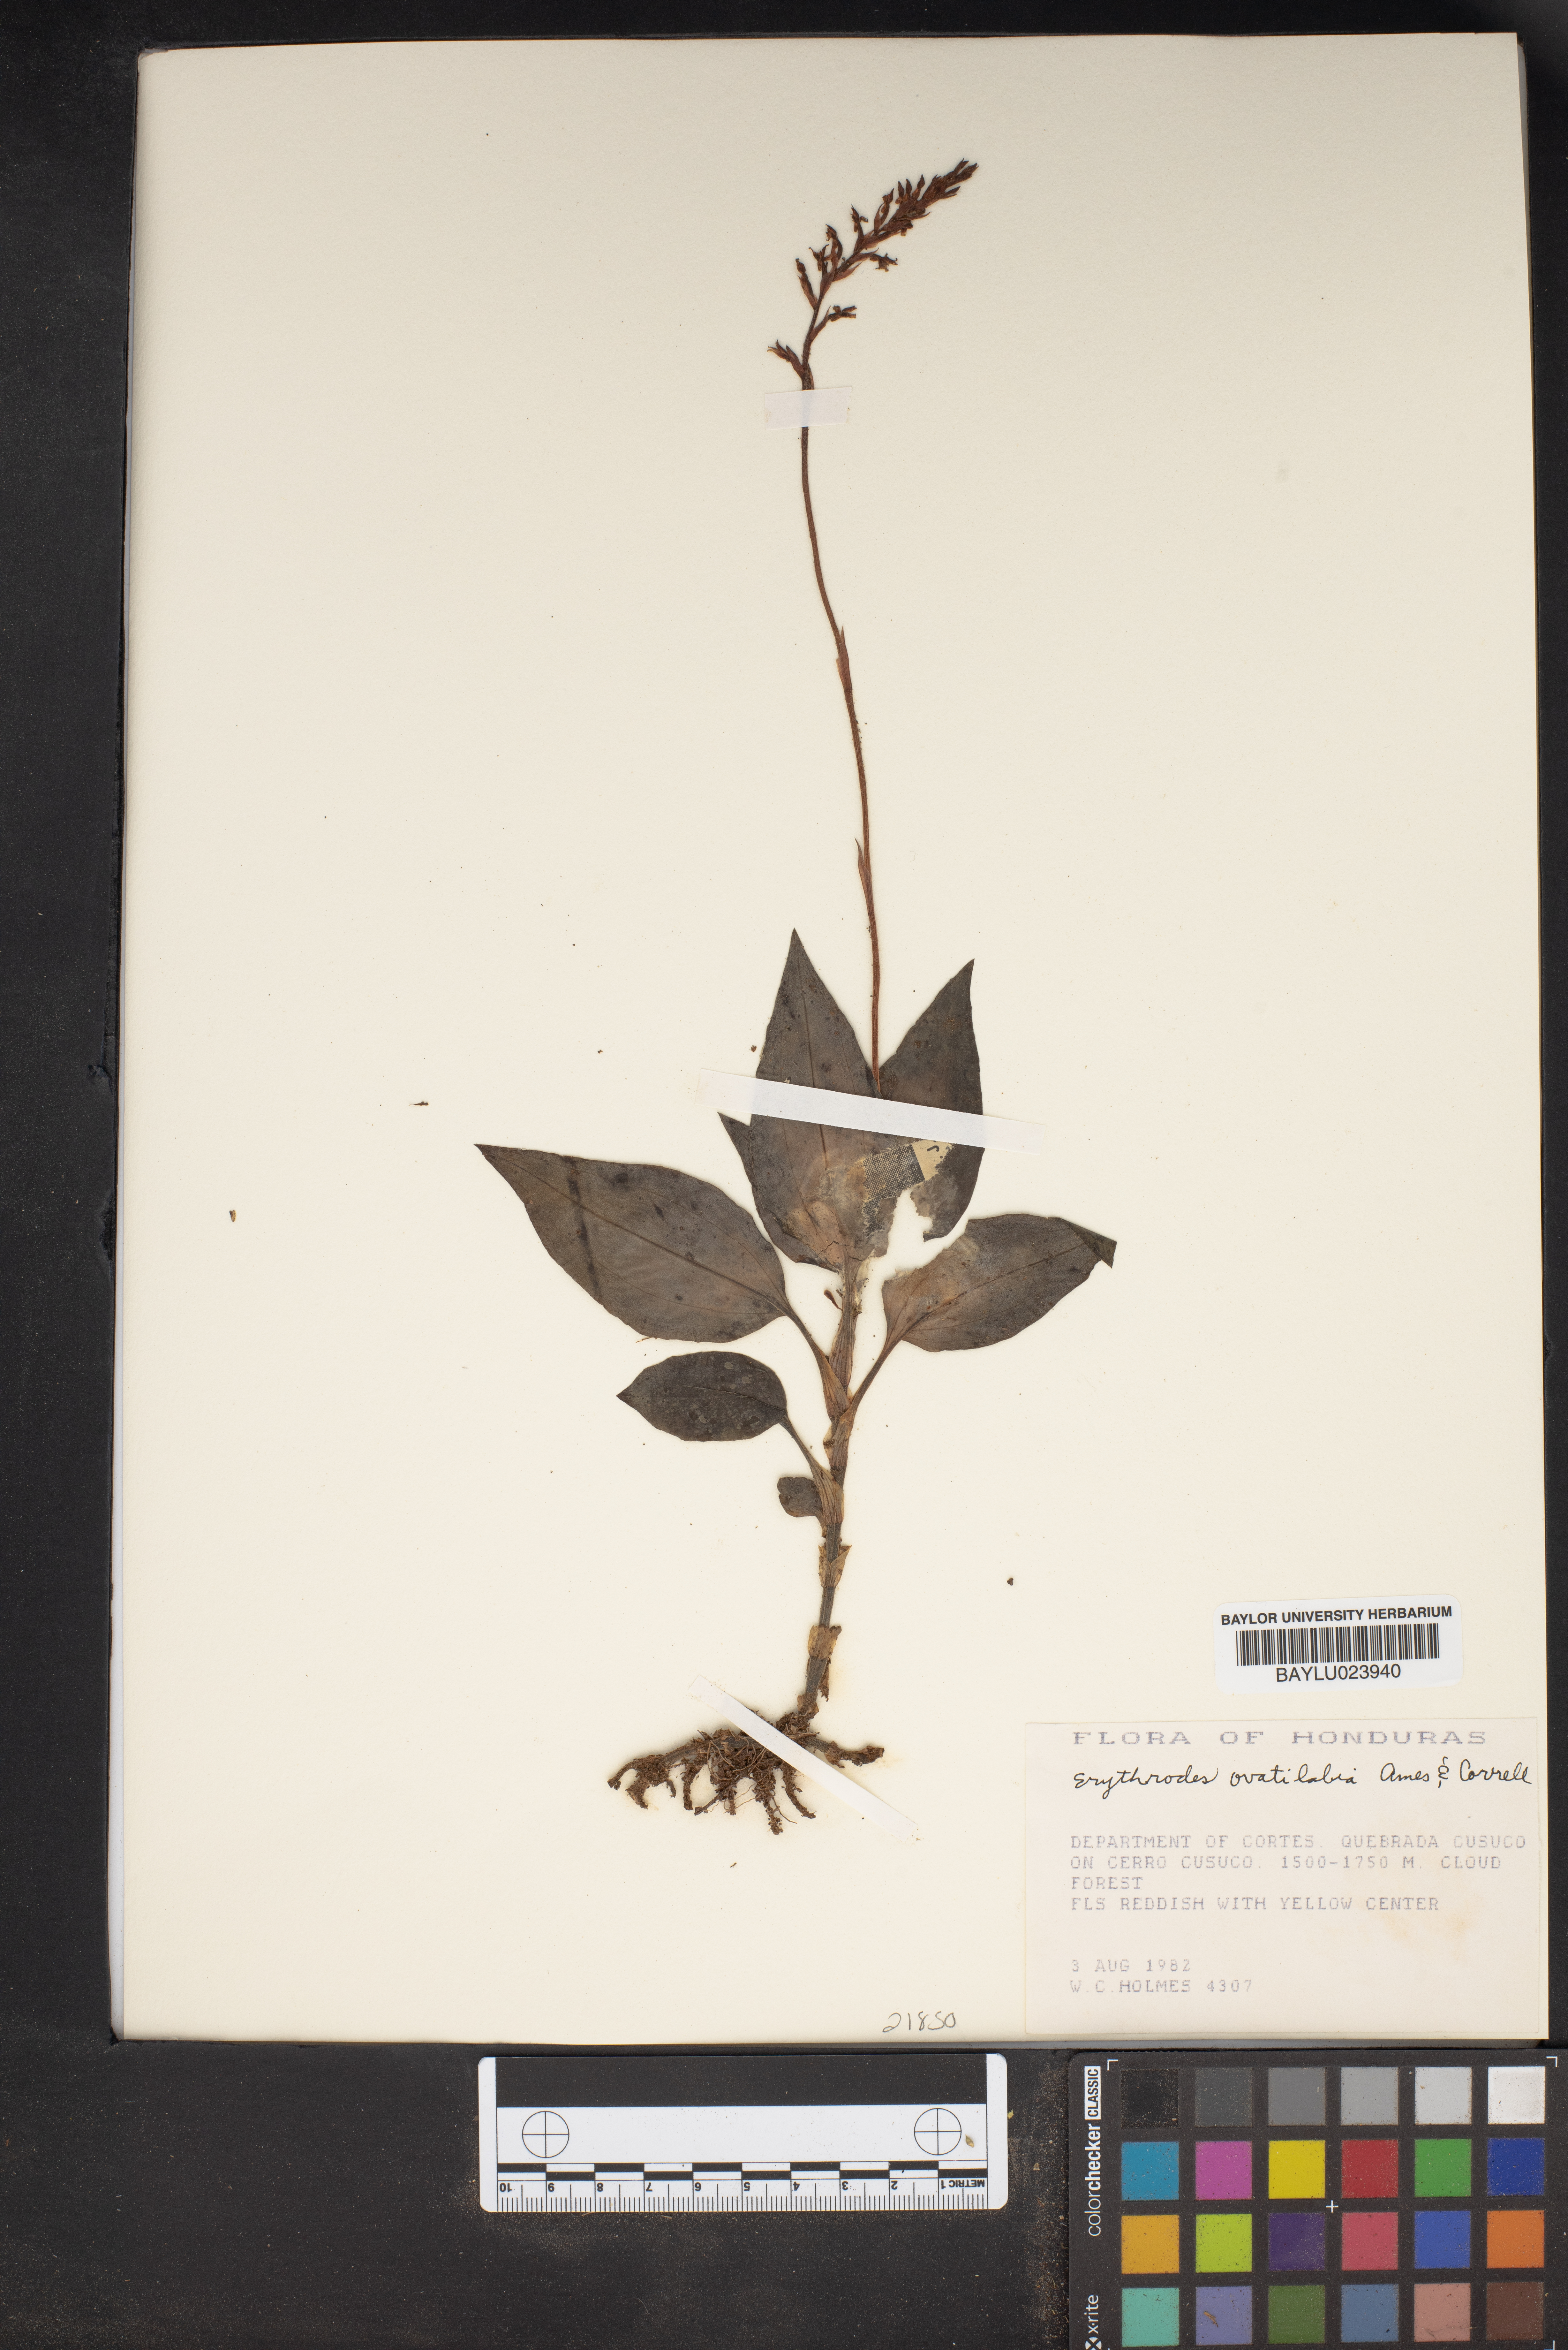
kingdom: Plantae
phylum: Tracheophyta
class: Liliopsida
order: Asparagales
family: Orchidaceae
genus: Kreodanthus
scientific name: Kreodanthus ovatilabius
